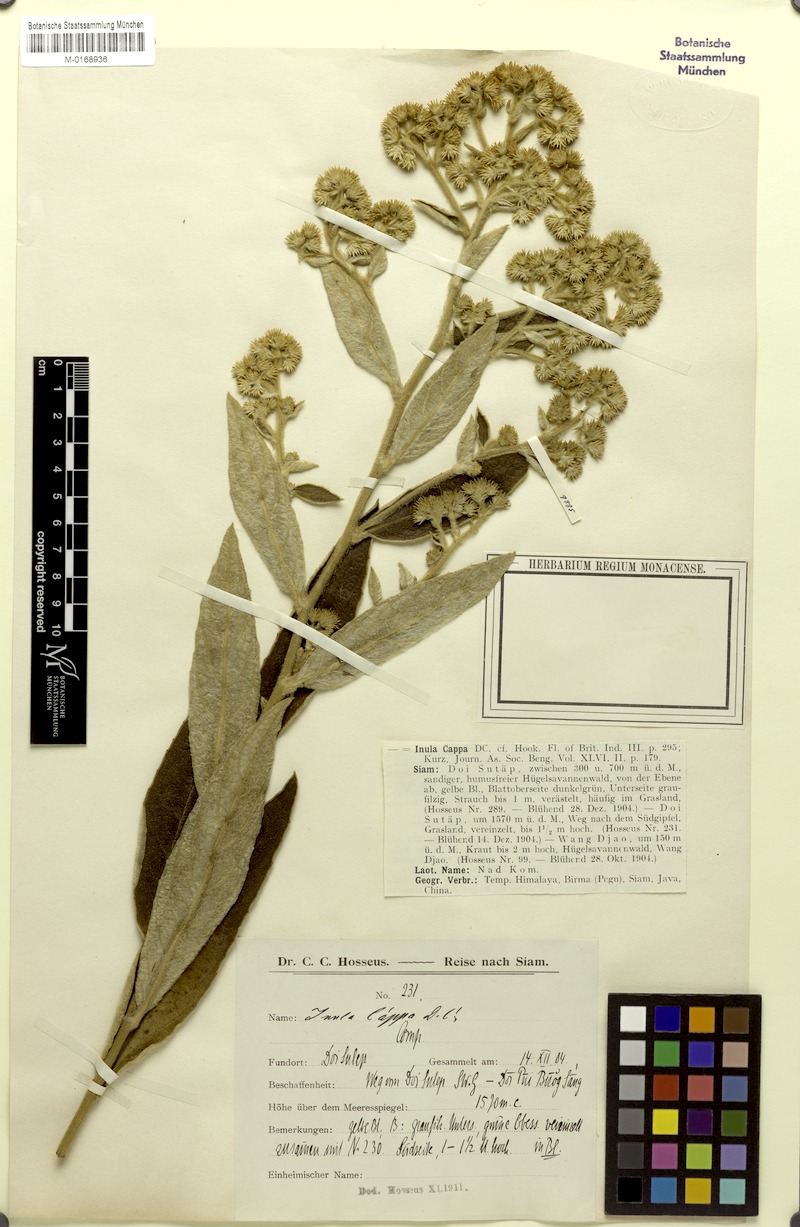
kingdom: Plantae
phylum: Tracheophyta
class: Magnoliopsida
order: Asterales
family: Asteraceae
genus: Duhaldea
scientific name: Duhaldea cappa
